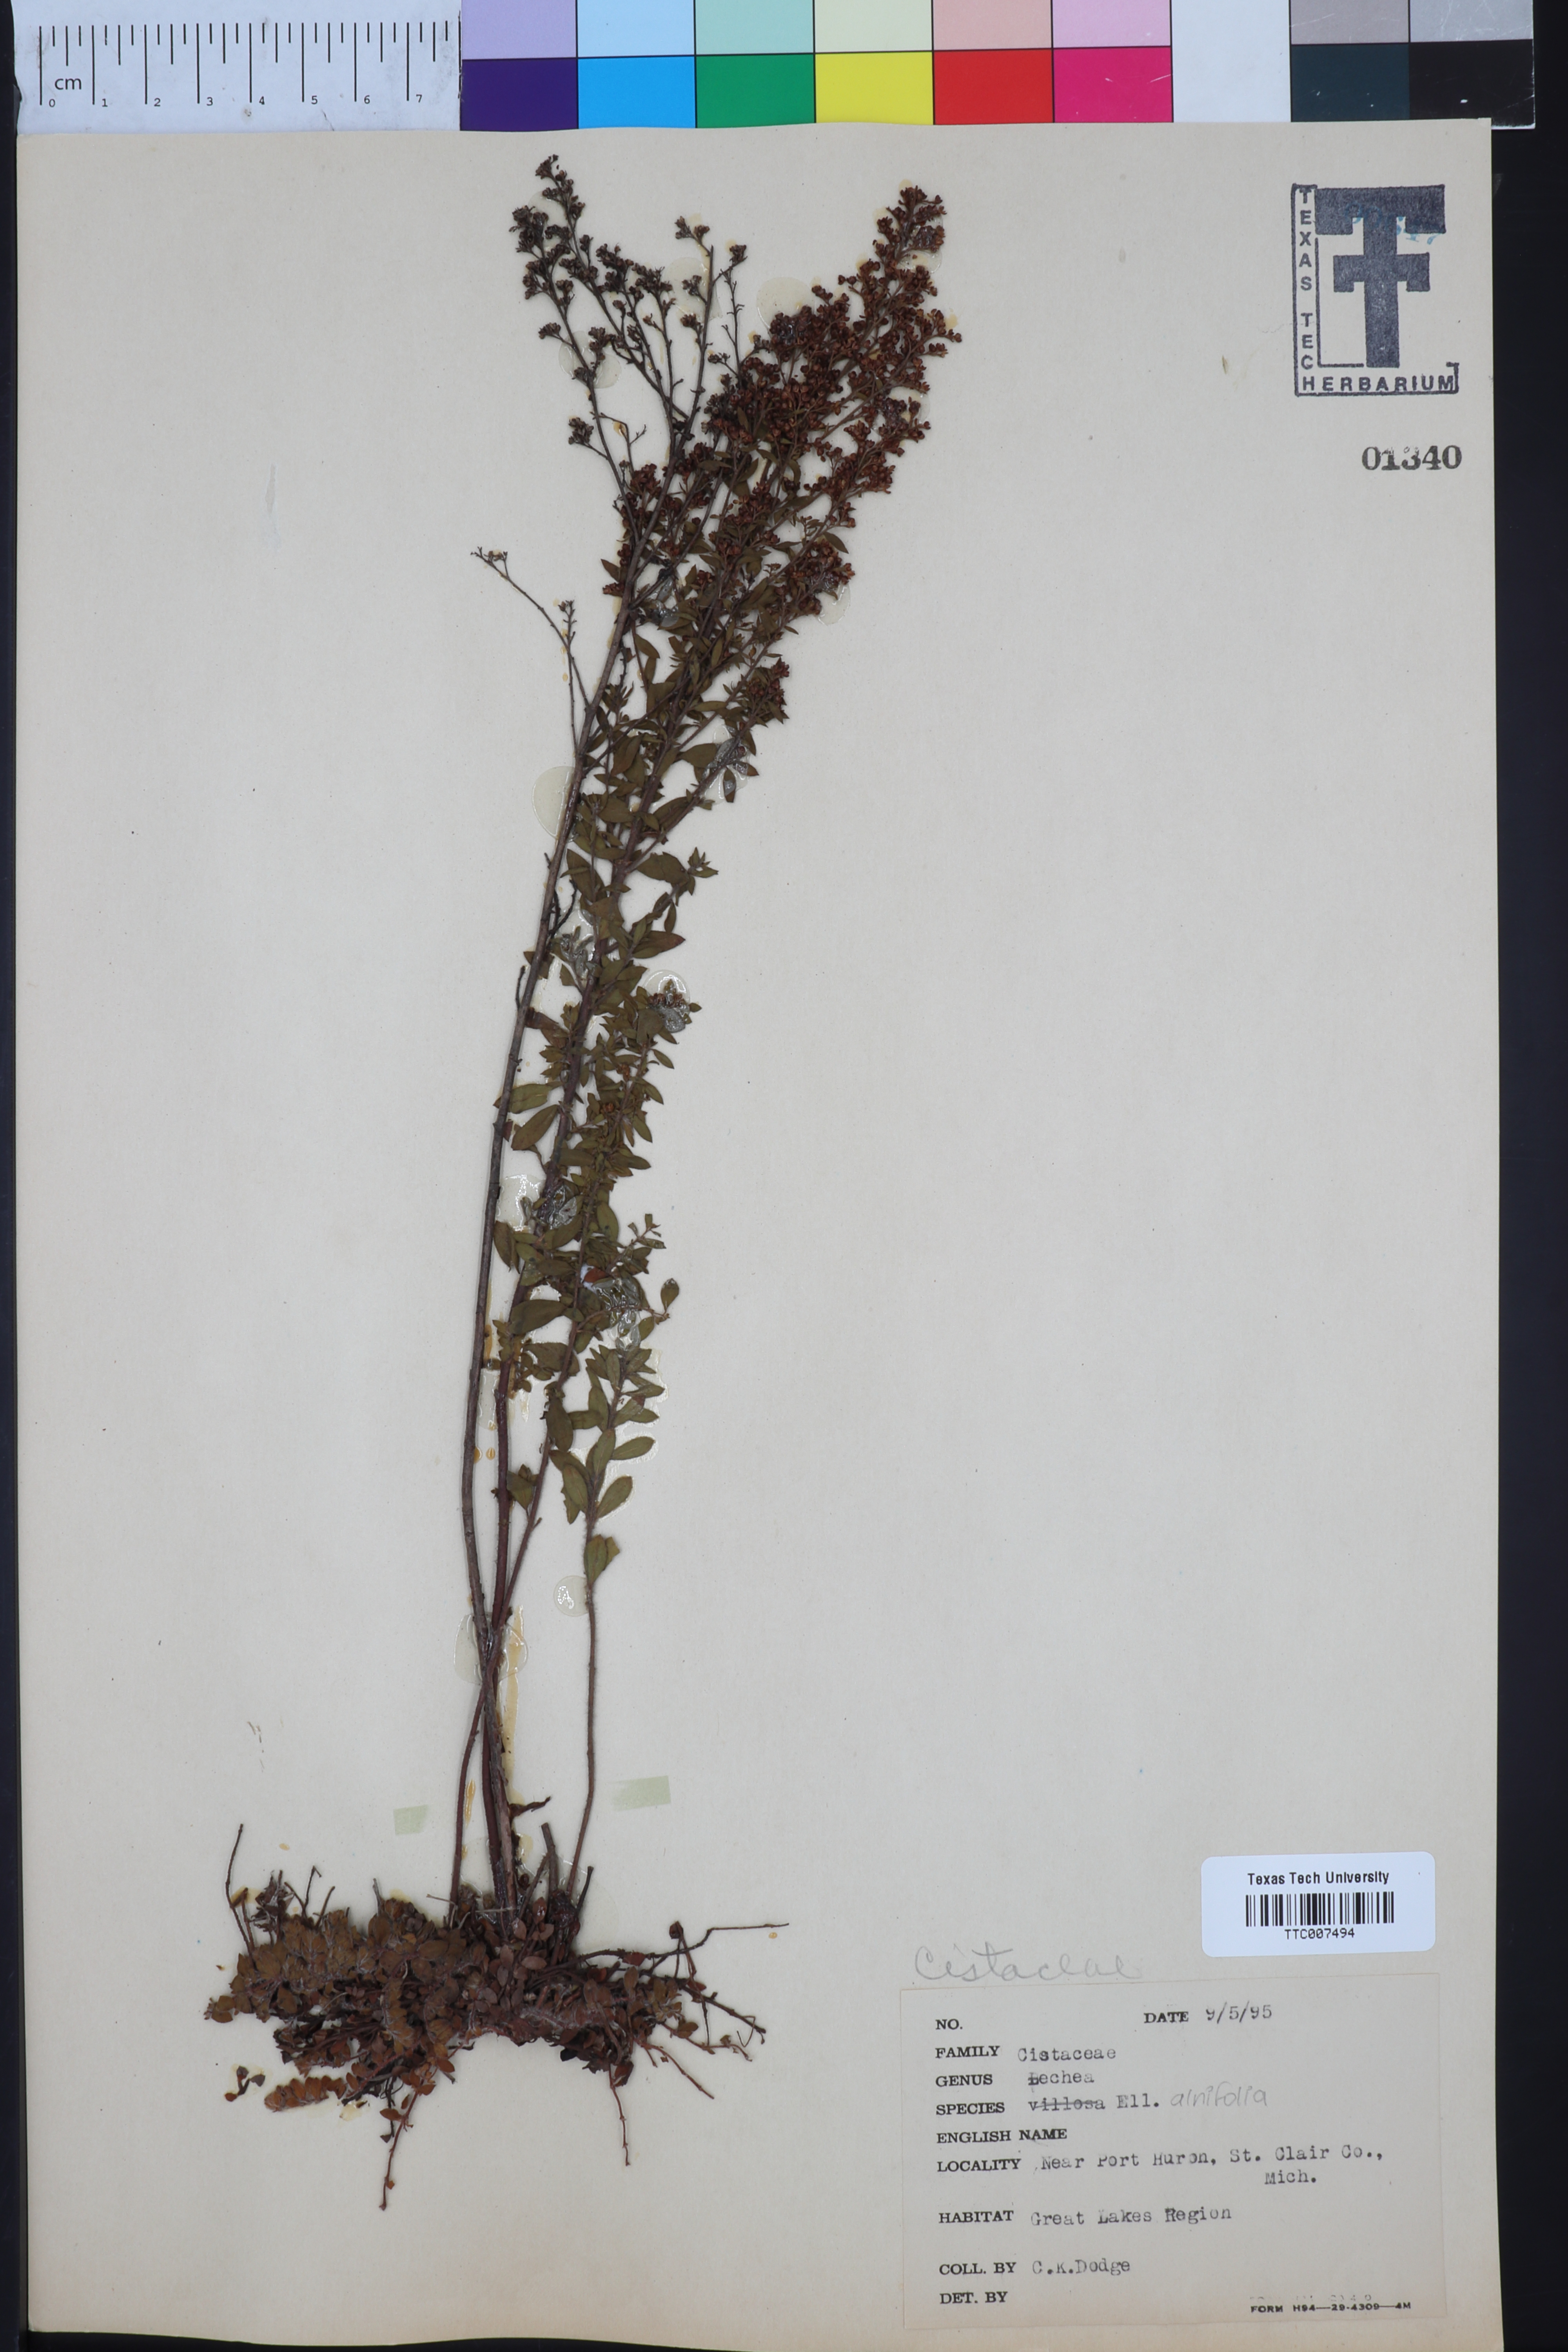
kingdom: Plantae
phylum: Tracheophyta
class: Magnoliopsida
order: Malvales
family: Cistaceae
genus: Lechea
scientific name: Lechea mucronata
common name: Hairy pinweed
